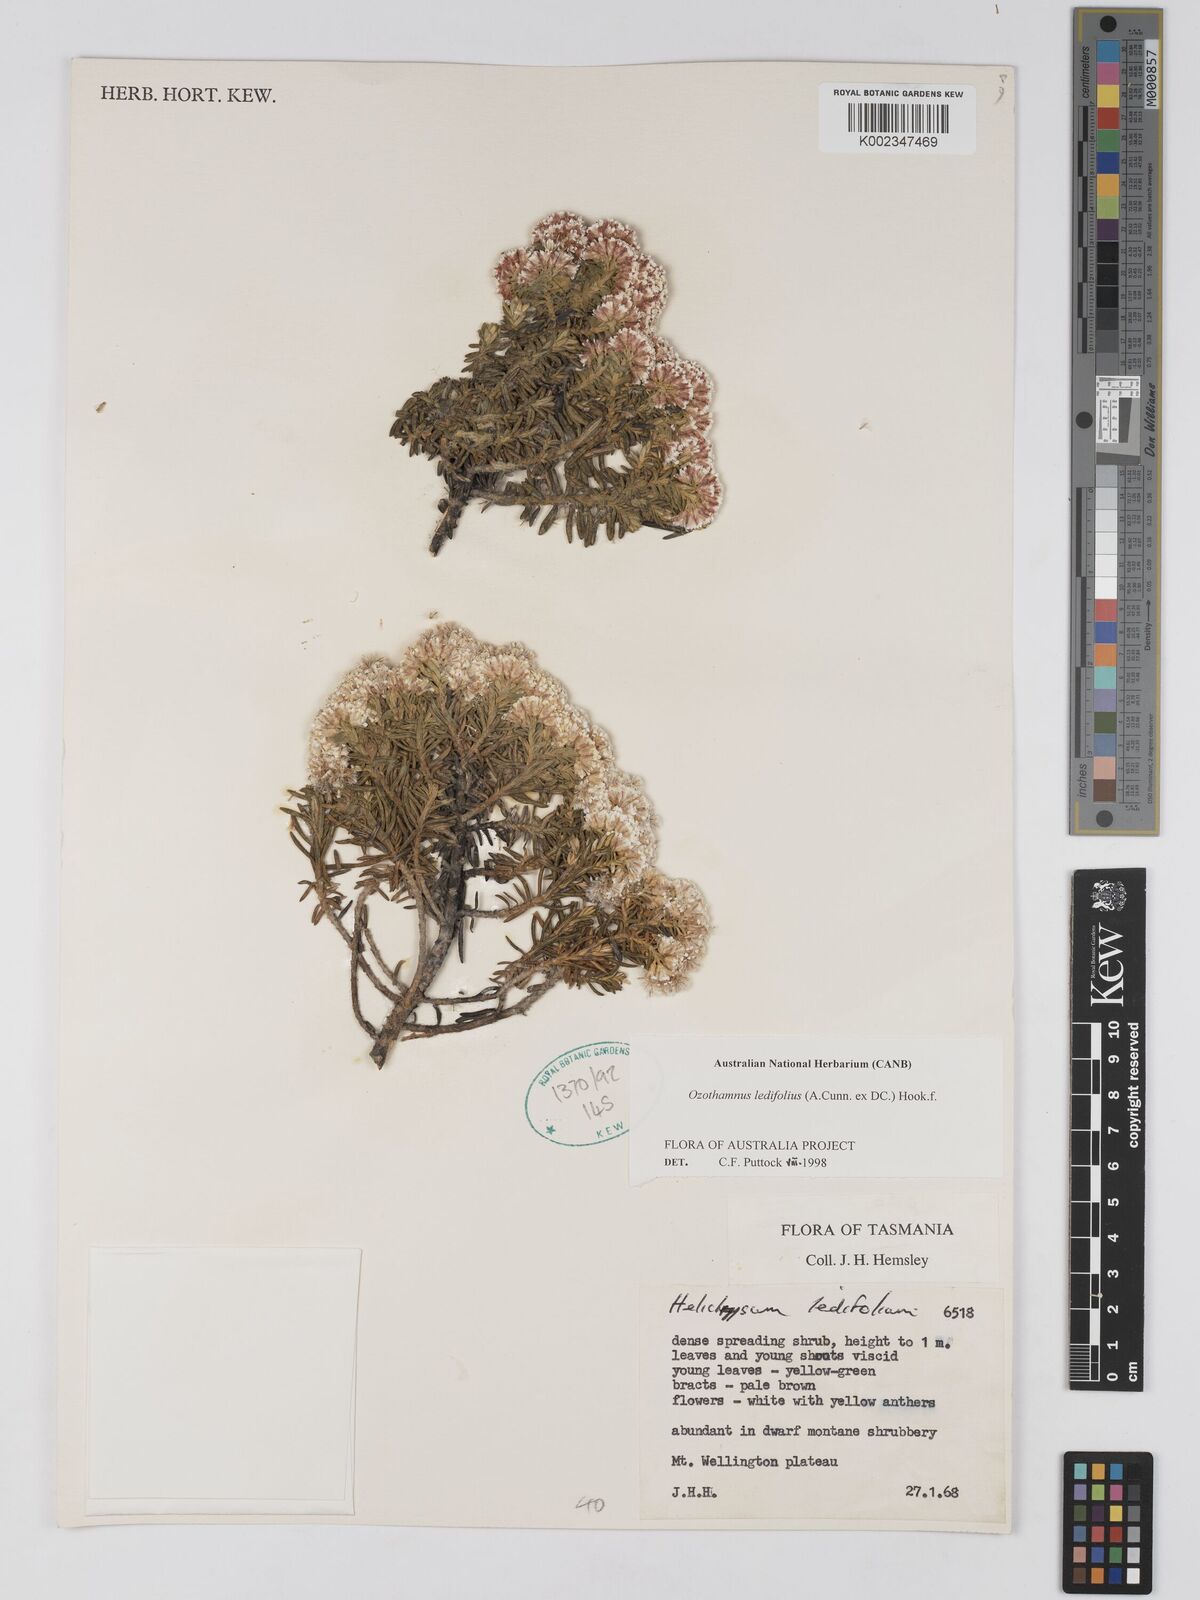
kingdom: Plantae
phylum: Tracheophyta
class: Magnoliopsida
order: Asterales
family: Asteraceae
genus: Ozothamnus
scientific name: Ozothamnus ledifolius
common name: Kerosene-weed
